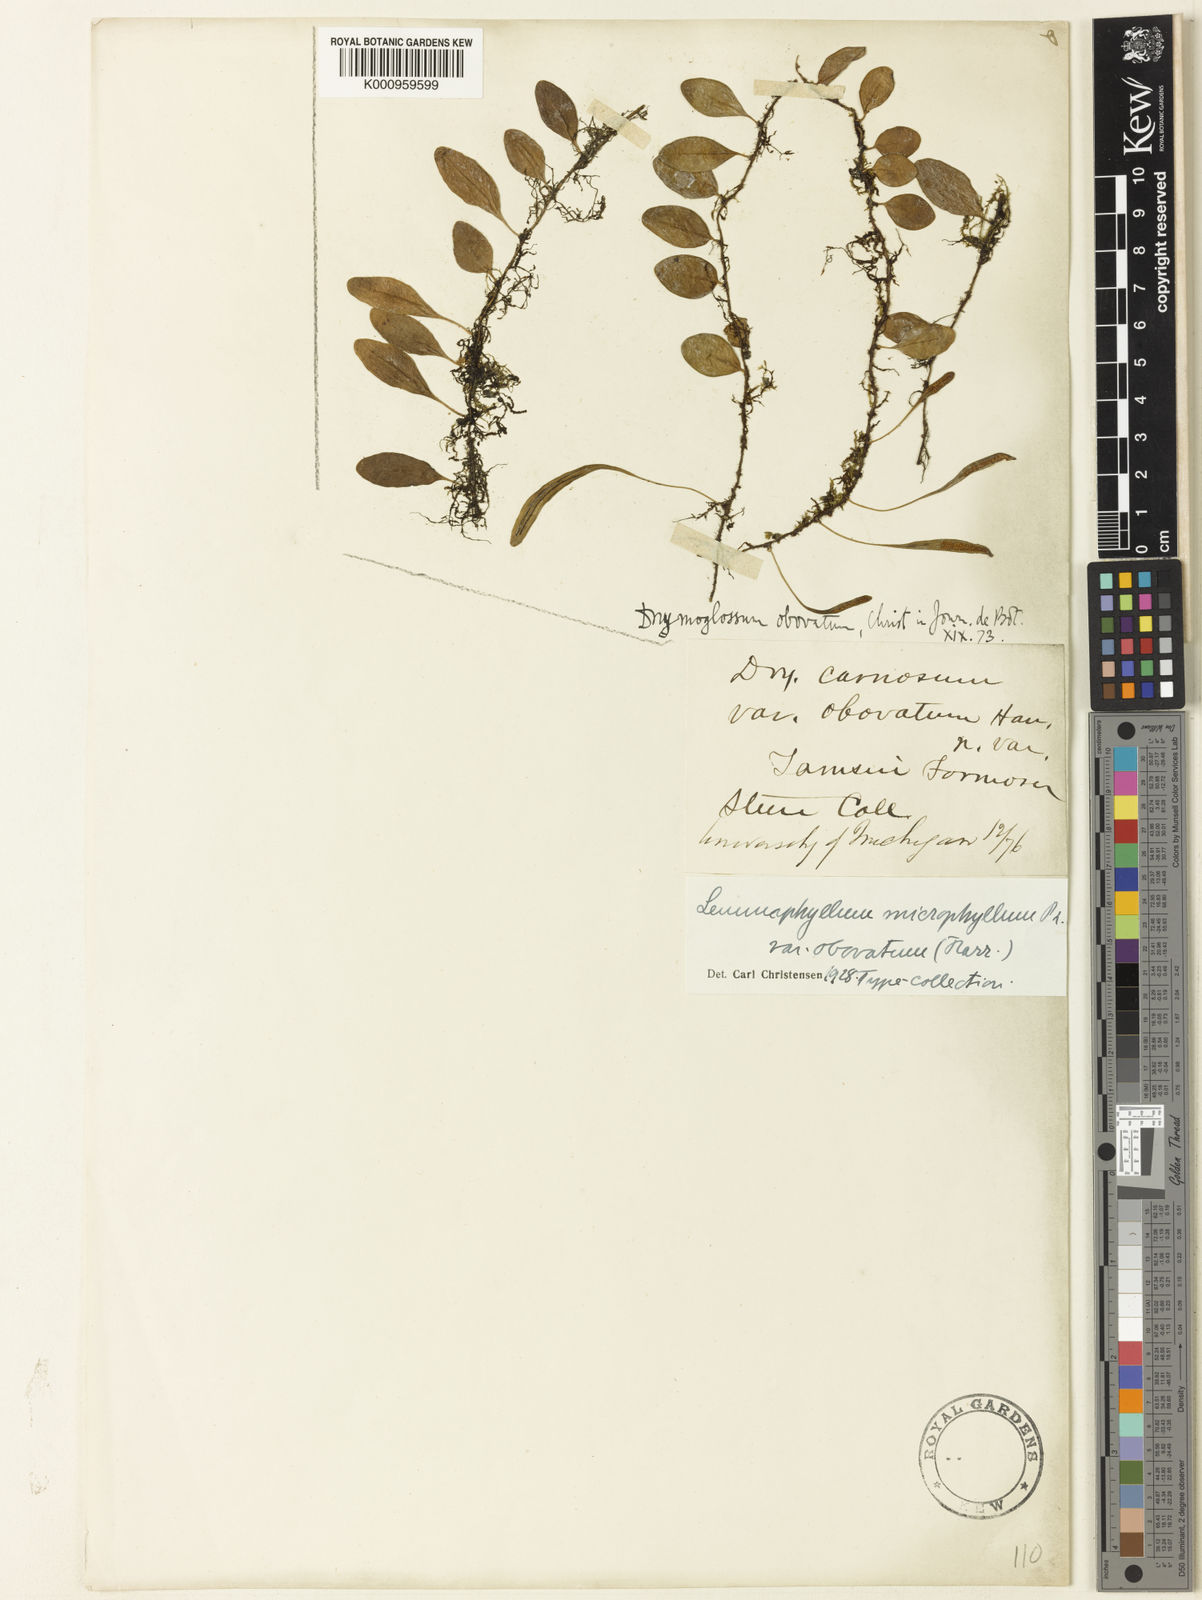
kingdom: Plantae
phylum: Tracheophyta
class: Polypodiopsida
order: Polypodiales
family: Polypodiaceae
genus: Lepisorus
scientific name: Lepisorus microphyllus
